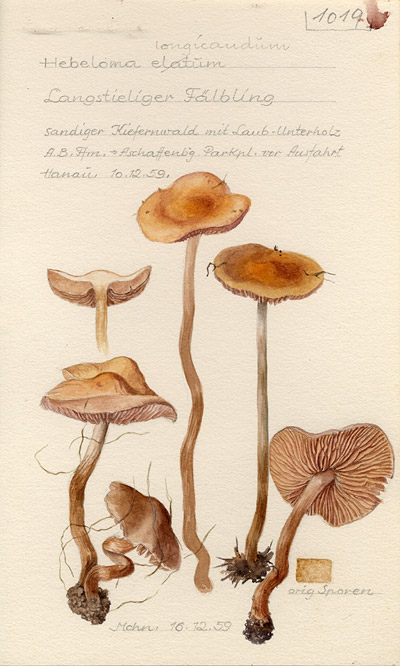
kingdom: Fungi
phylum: Basidiomycota
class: Agaricomycetes
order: Agaricales
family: Hymenogastraceae
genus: Hebeloma
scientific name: Hebeloma crustuliniforme
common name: Poison pie
